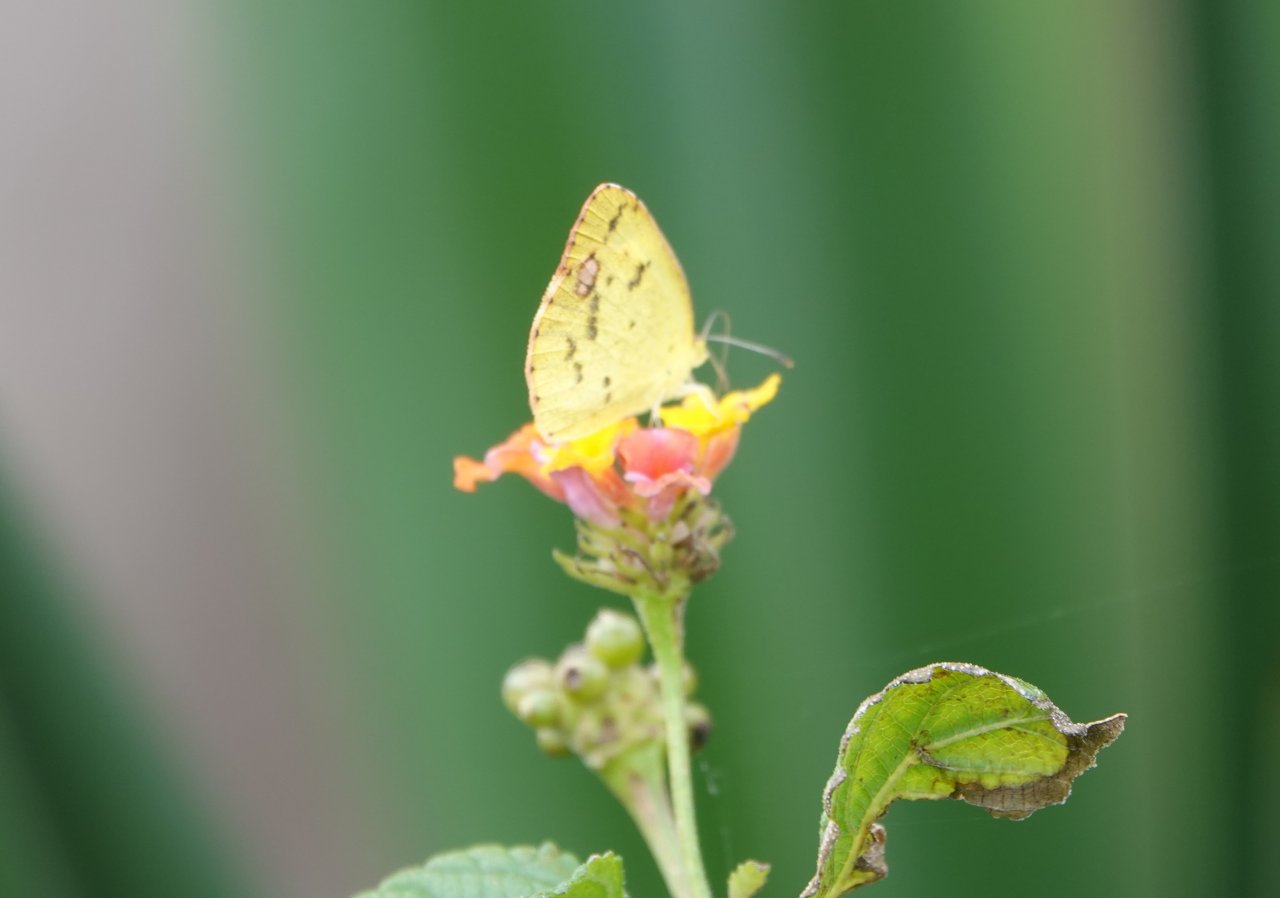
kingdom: Animalia
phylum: Arthropoda
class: Insecta
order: Lepidoptera
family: Pieridae
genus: Pyrisitia
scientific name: Pyrisitia lisa
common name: Little Yellow
